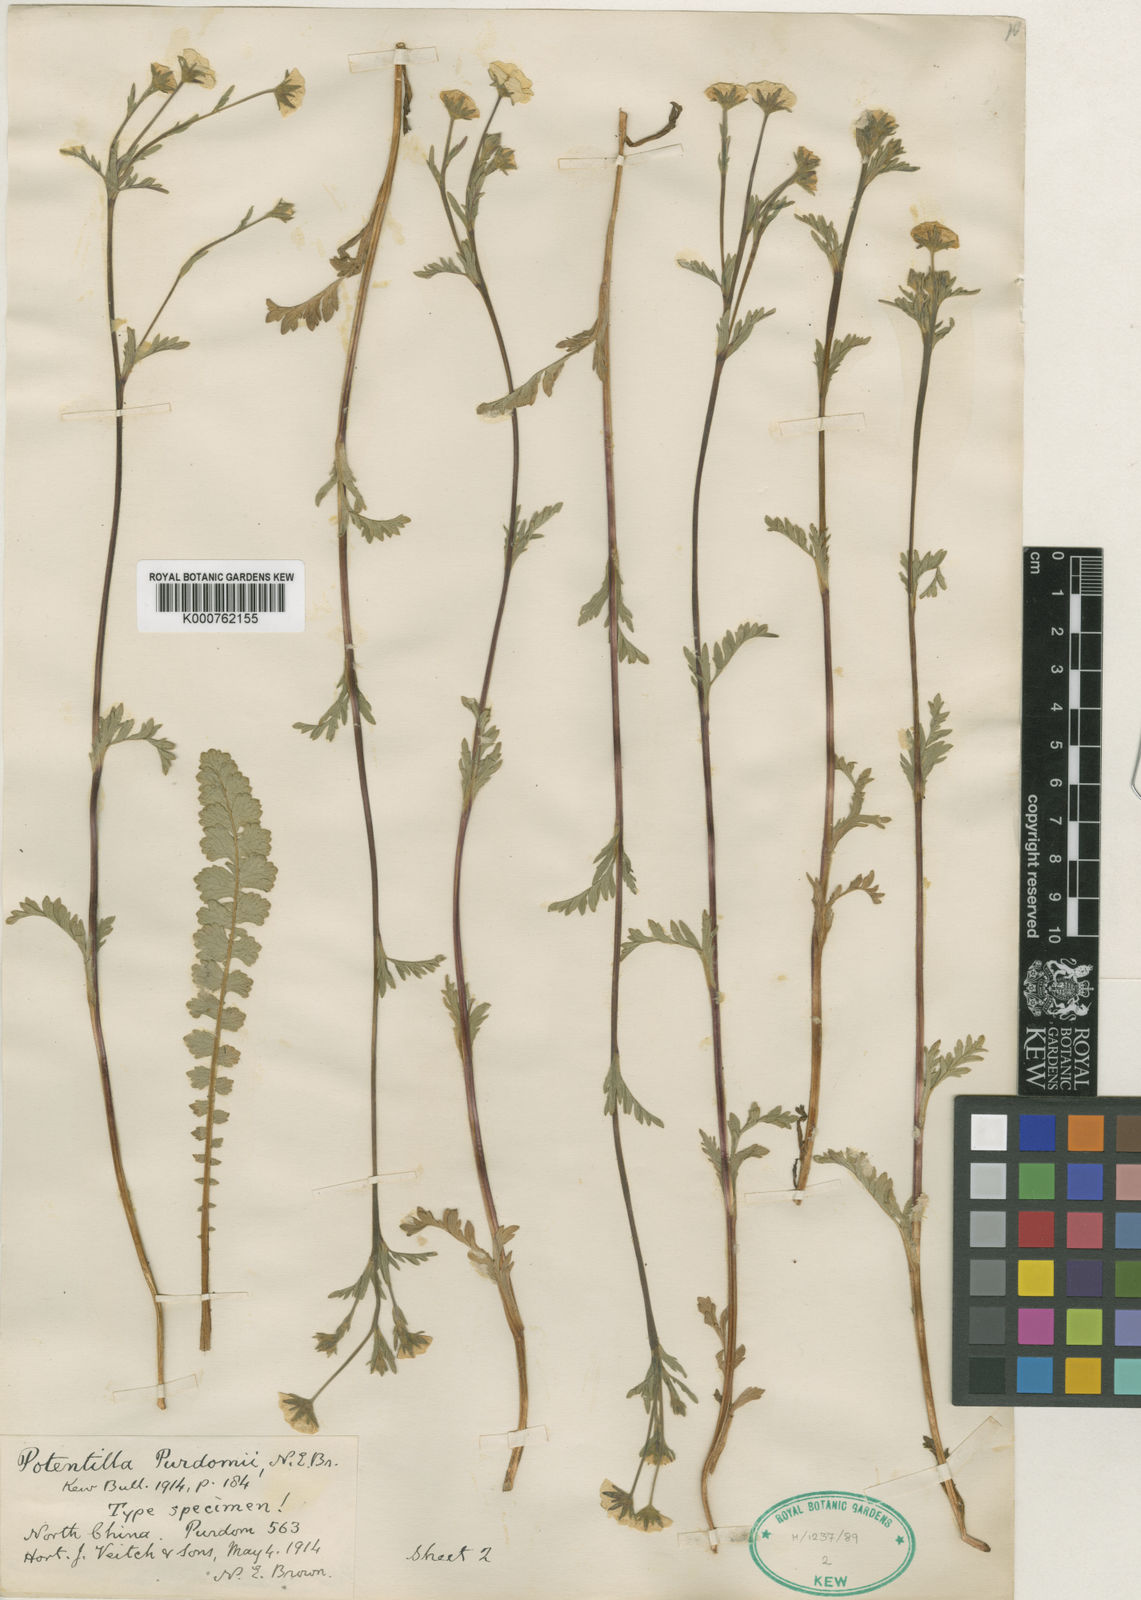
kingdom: Plantae
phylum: Tracheophyta
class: Magnoliopsida
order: Rosales
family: Rosaceae
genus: Geum
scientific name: Geum longifolium
